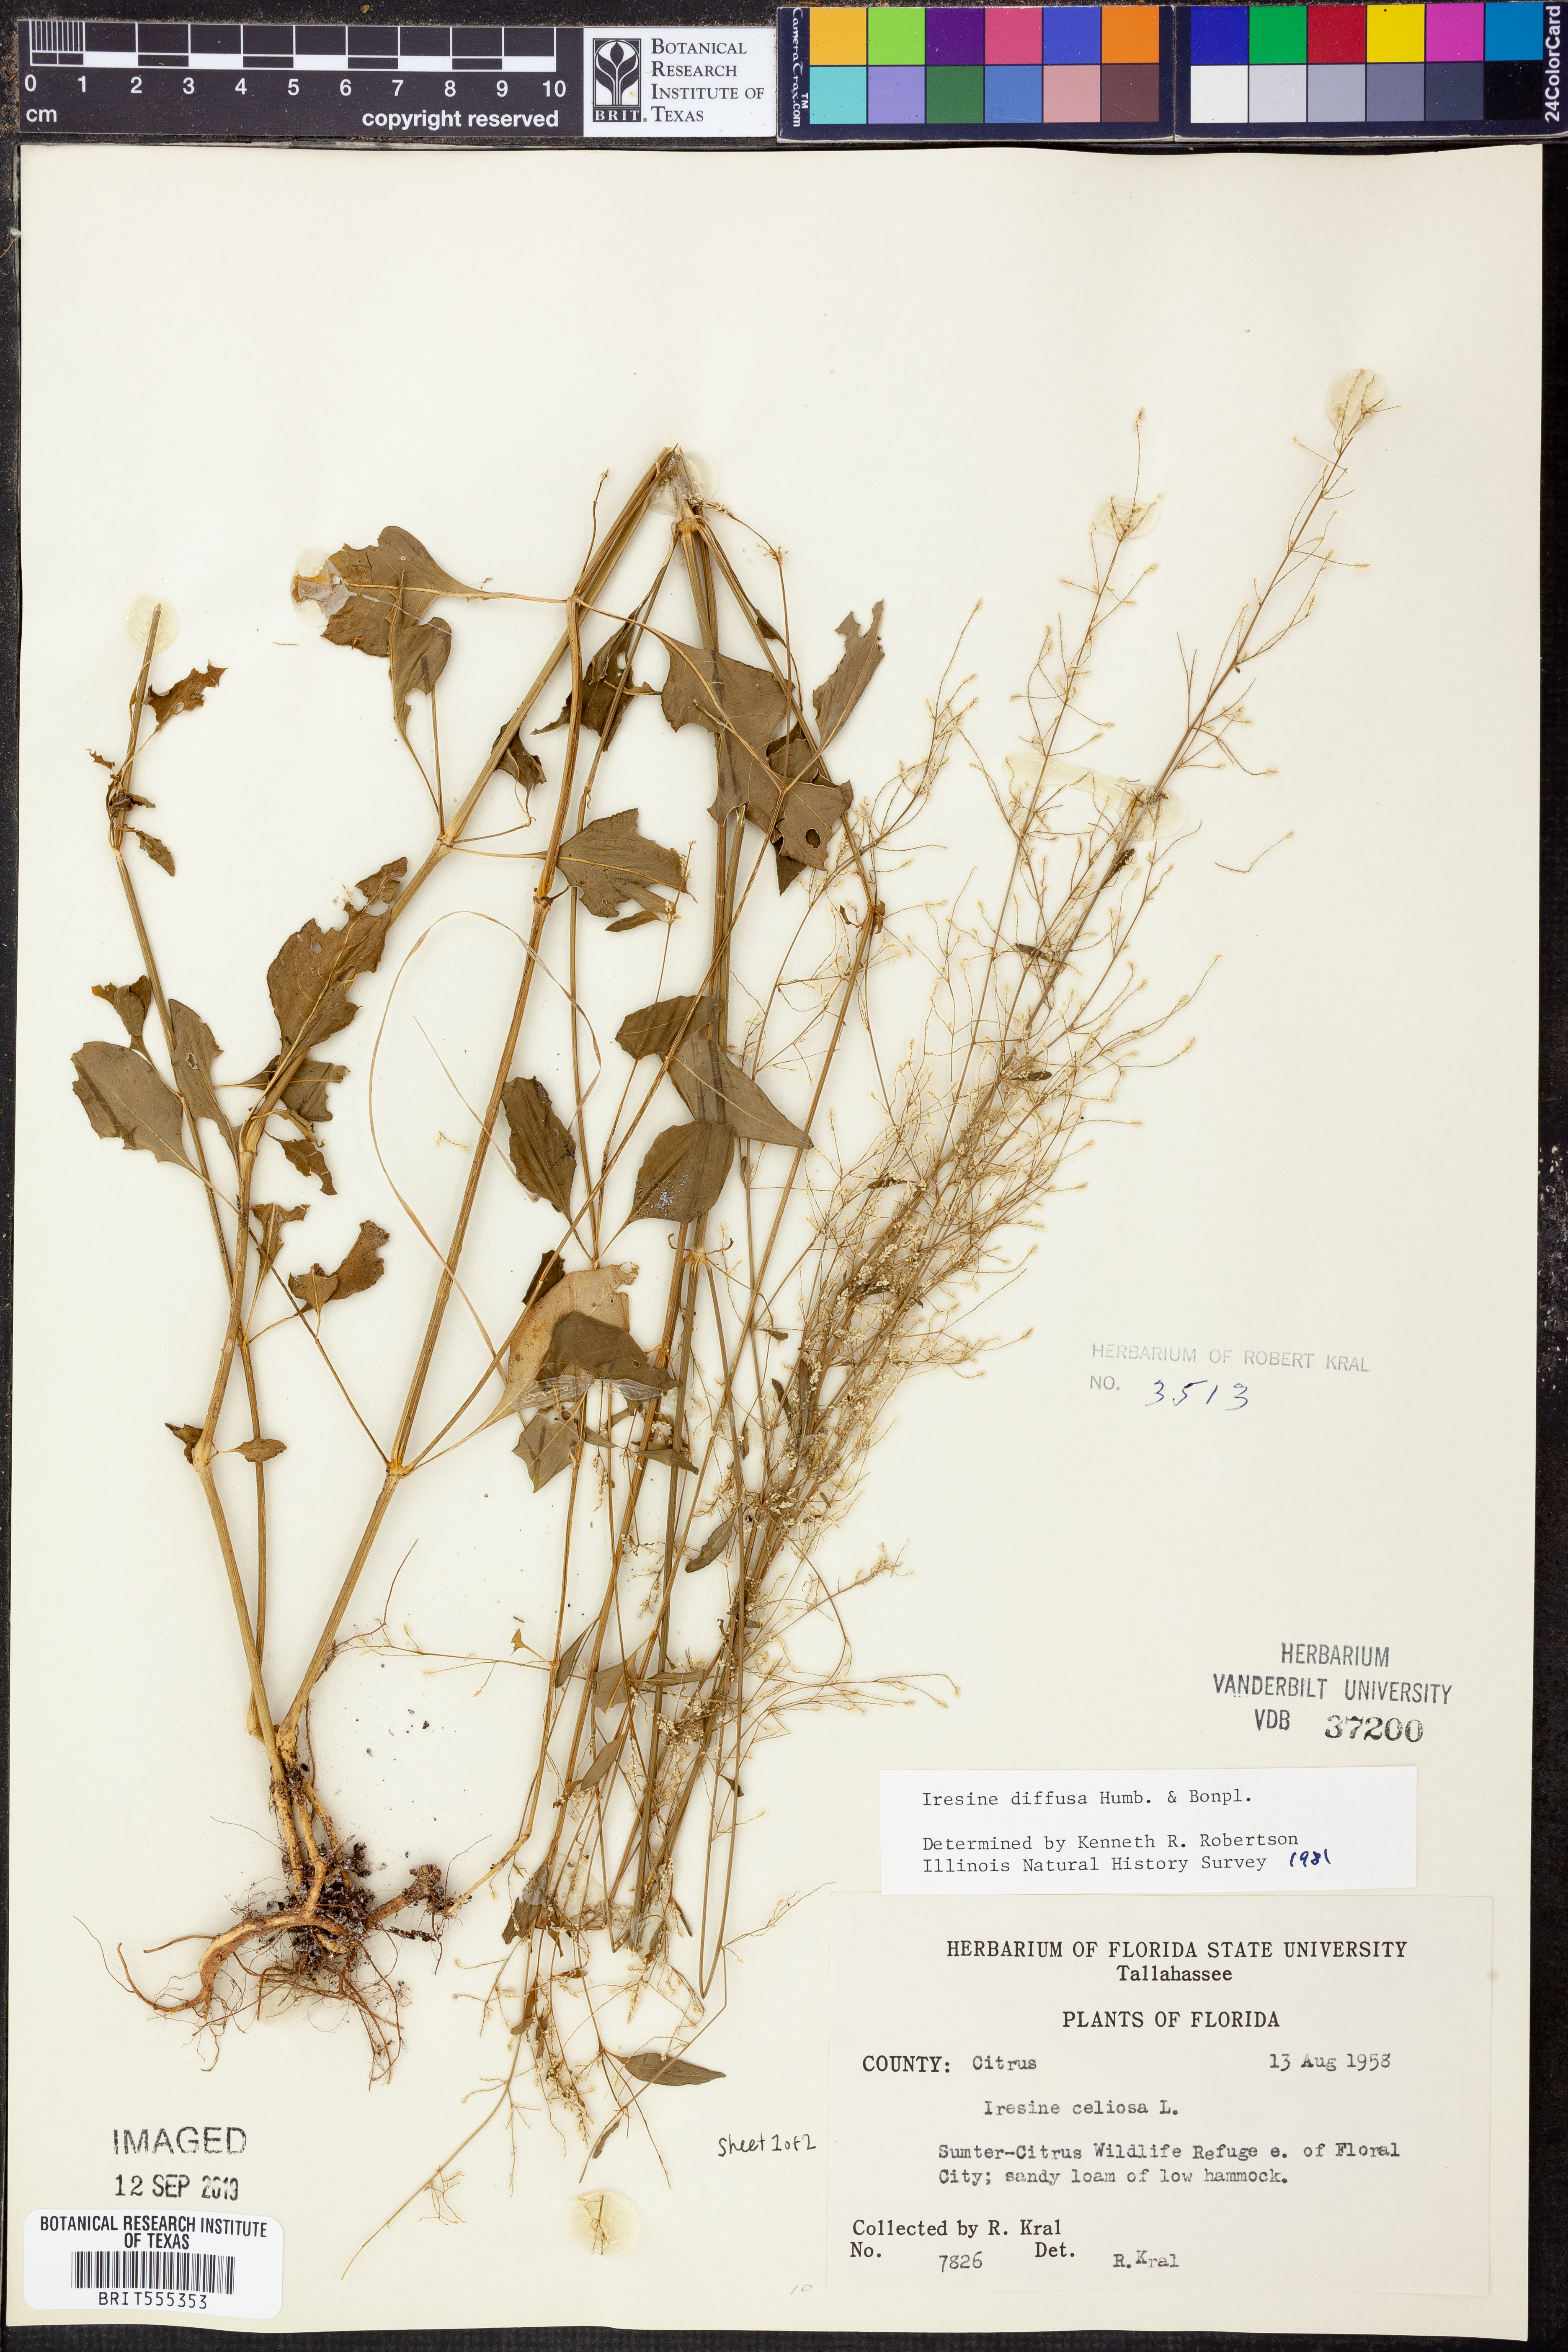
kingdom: Plantae
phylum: Tracheophyta
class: Magnoliopsida
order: Caryophyllales
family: Amaranthaceae
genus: Iresine
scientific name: Iresine diffusa
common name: Juba's-bush
